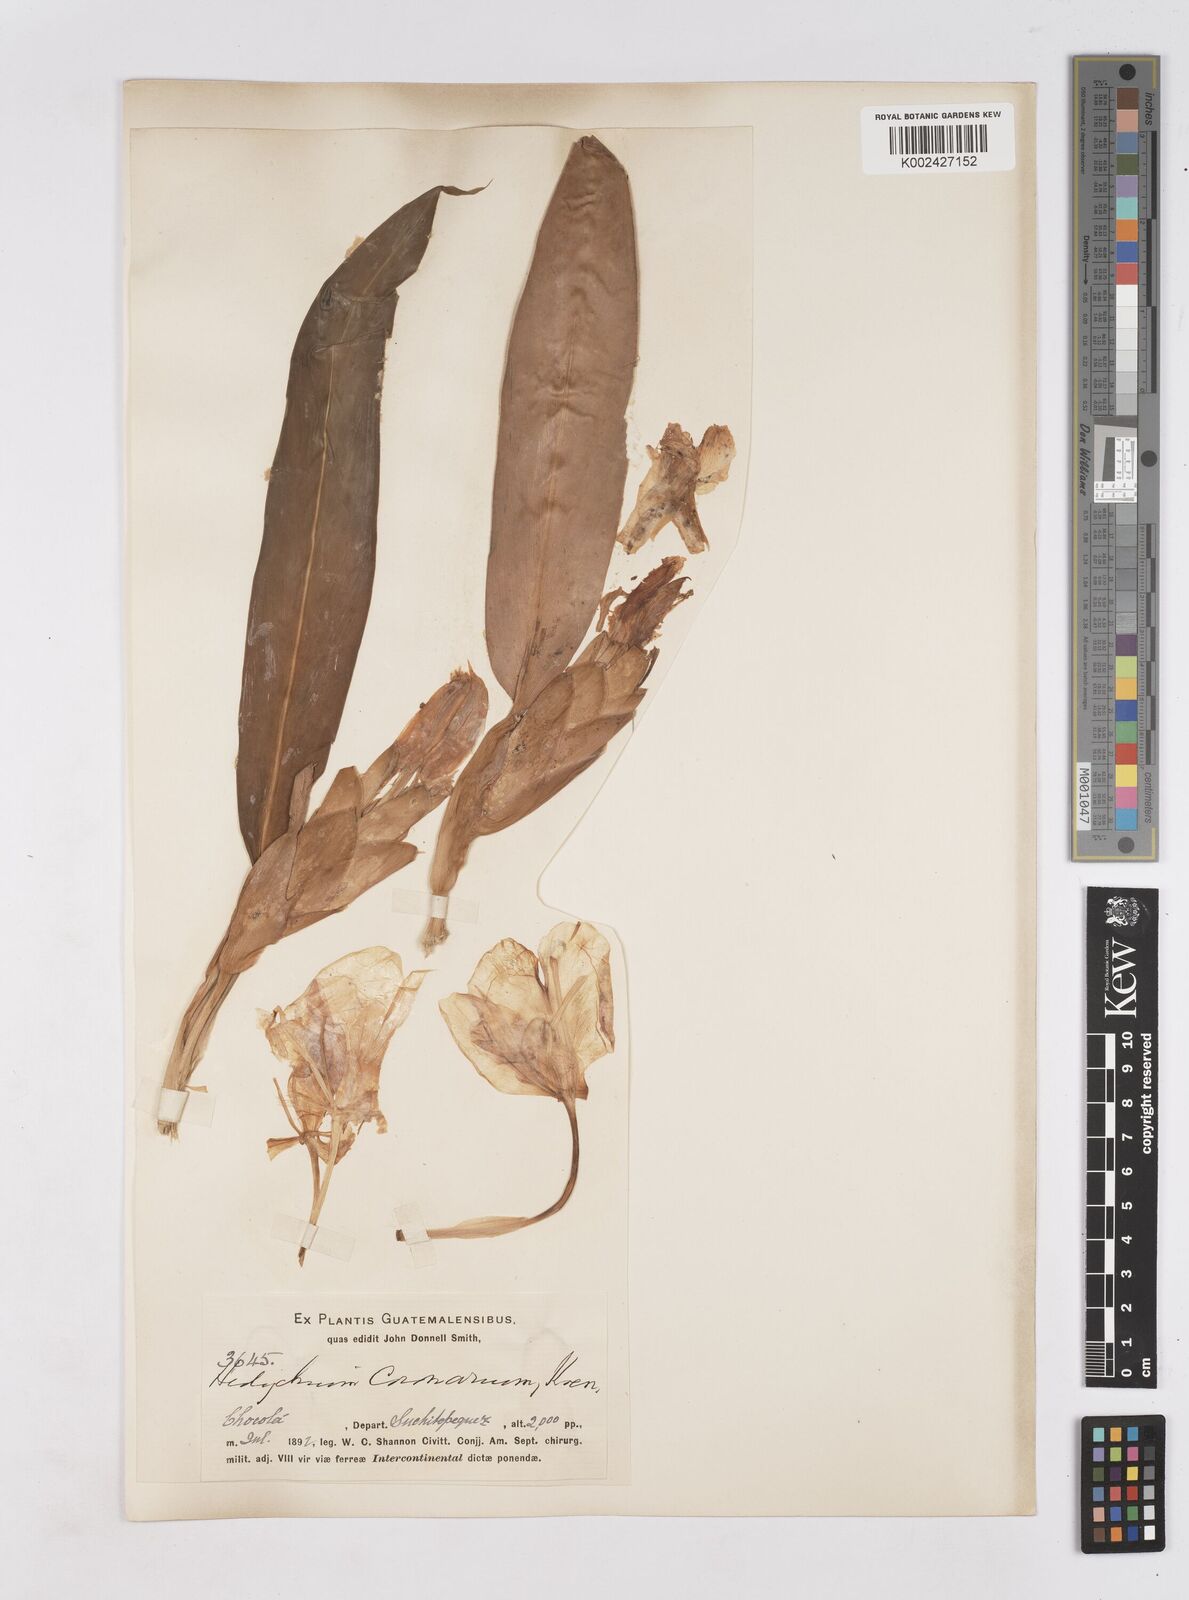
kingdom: Plantae
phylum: Tracheophyta
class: Liliopsida
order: Zingiberales
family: Zingiberaceae
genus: Hedychium
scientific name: Hedychium coronarium
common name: White garland-lily
